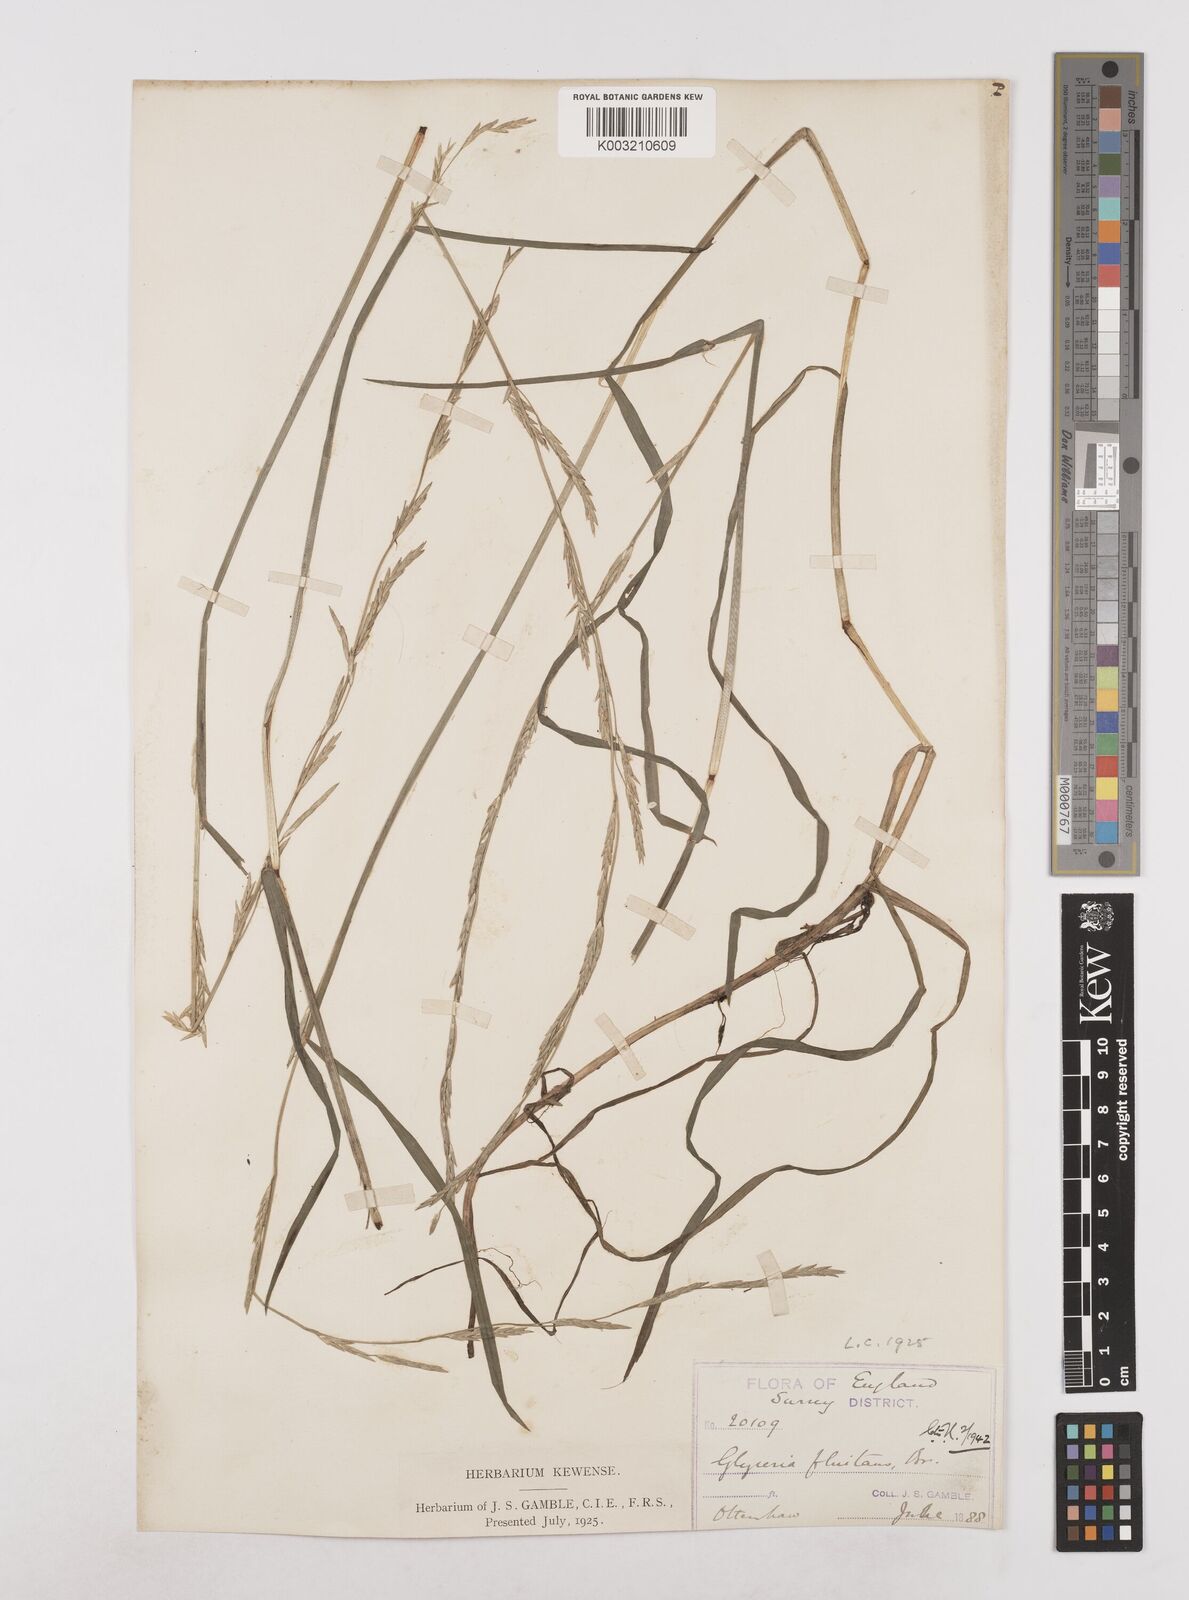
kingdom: Plantae
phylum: Tracheophyta
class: Liliopsida
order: Poales
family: Poaceae
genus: Glyceria
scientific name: Glyceria fluitans
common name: Floating sweet-grass
